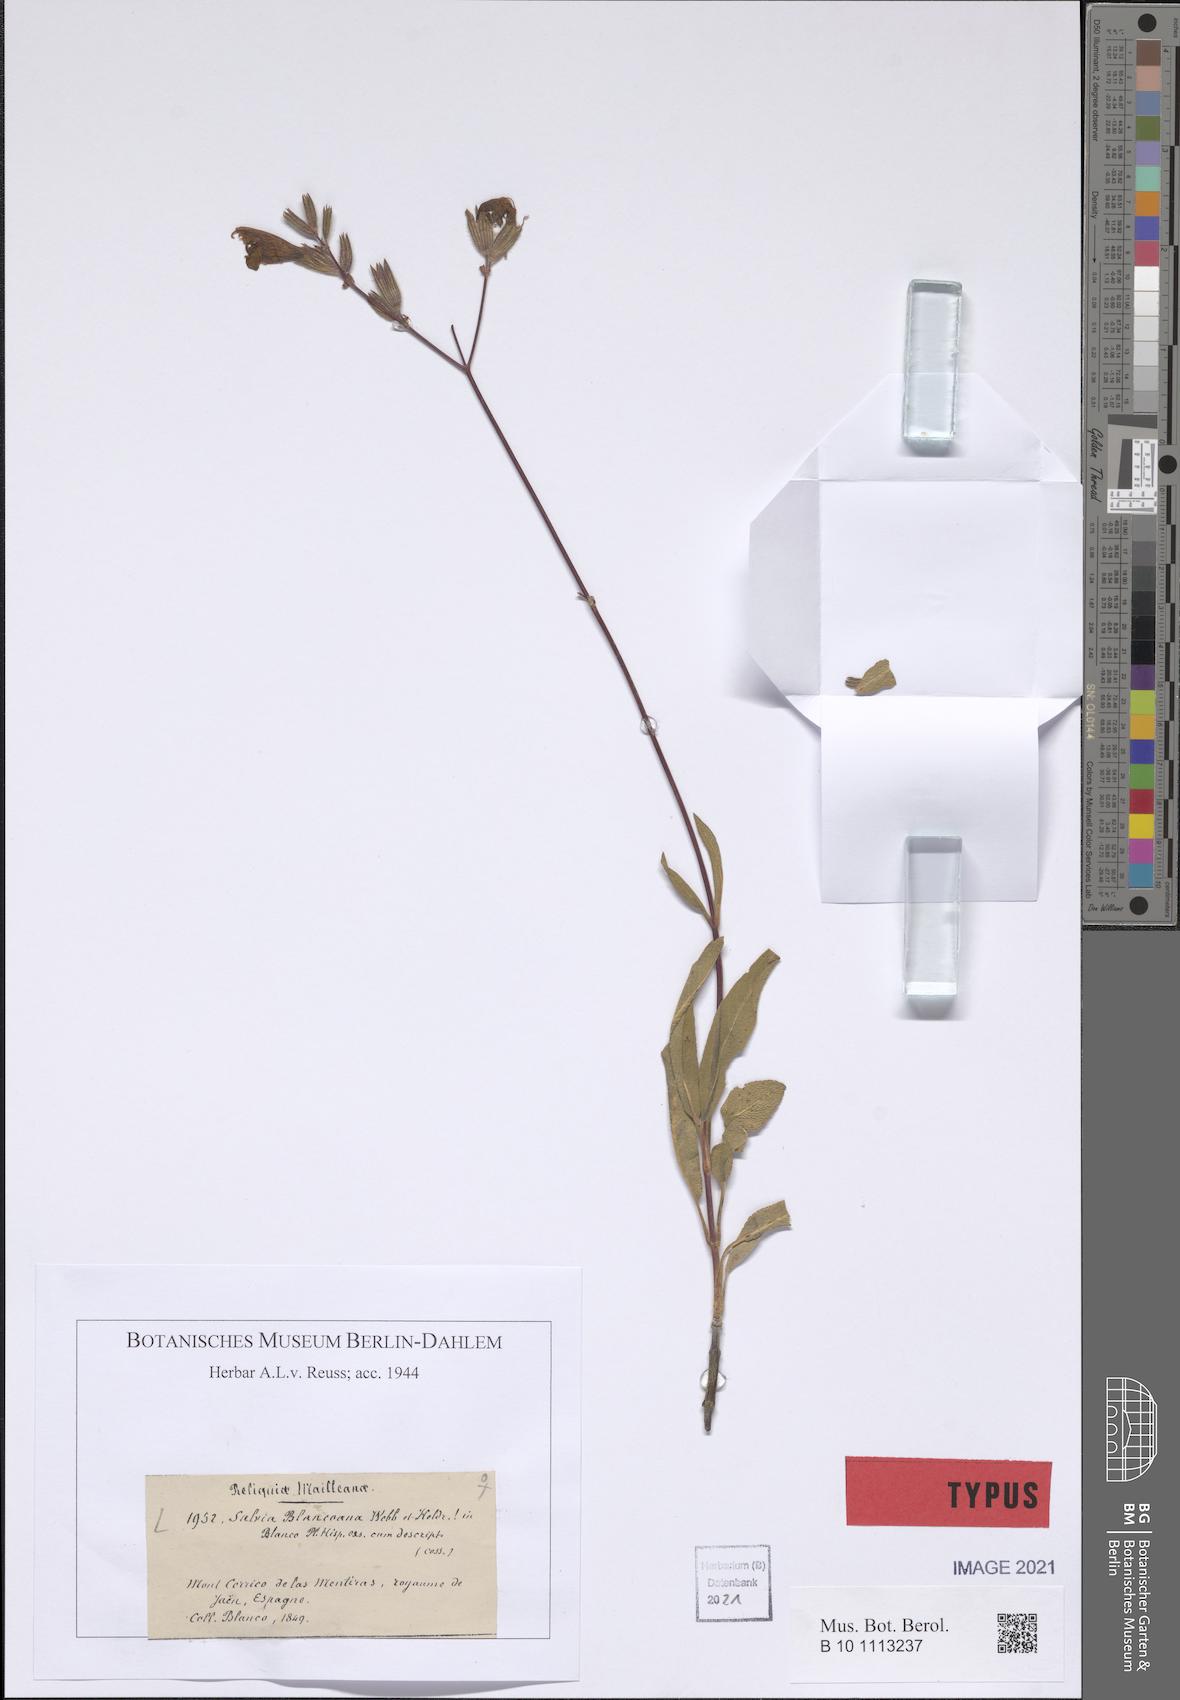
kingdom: Plantae
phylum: Tracheophyta
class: Magnoliopsida
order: Lamiales
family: Lamiaceae
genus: Salvia
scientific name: Salvia blancoana
